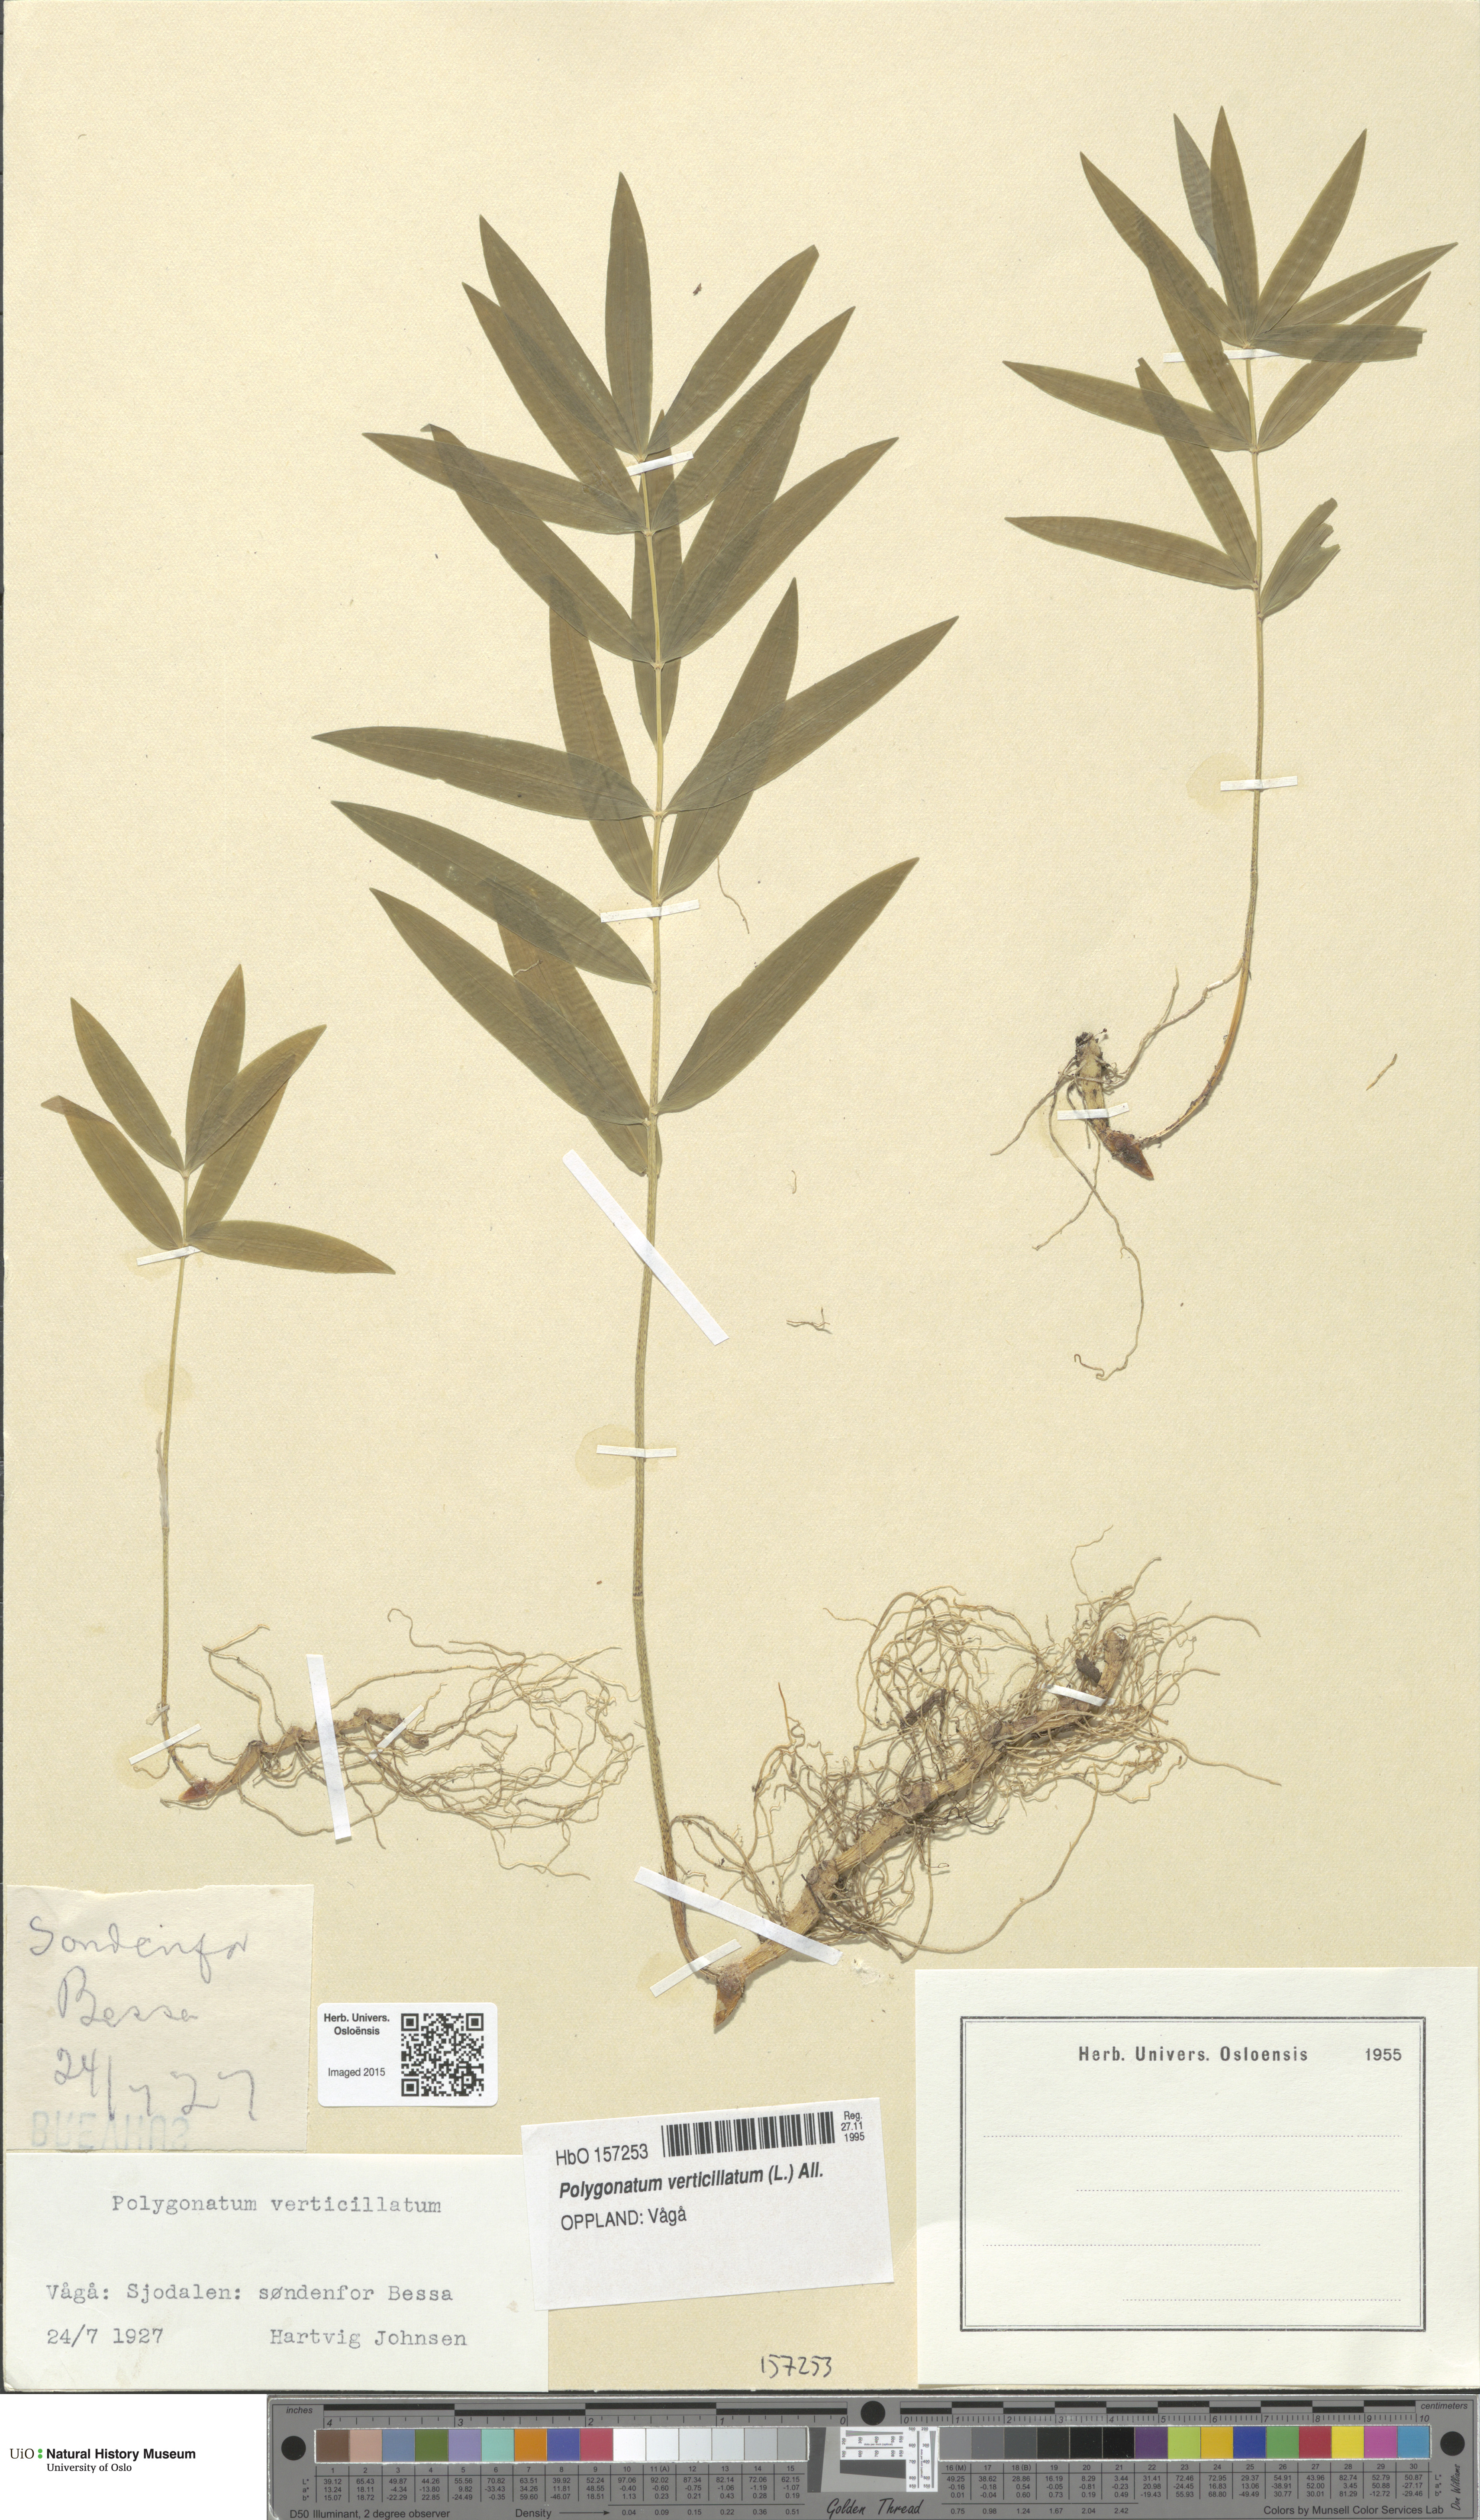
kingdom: Plantae
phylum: Tracheophyta
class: Liliopsida
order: Asparagales
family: Asparagaceae
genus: Polygonatum
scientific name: Polygonatum verticillatum
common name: Whorled solomon's-seal
